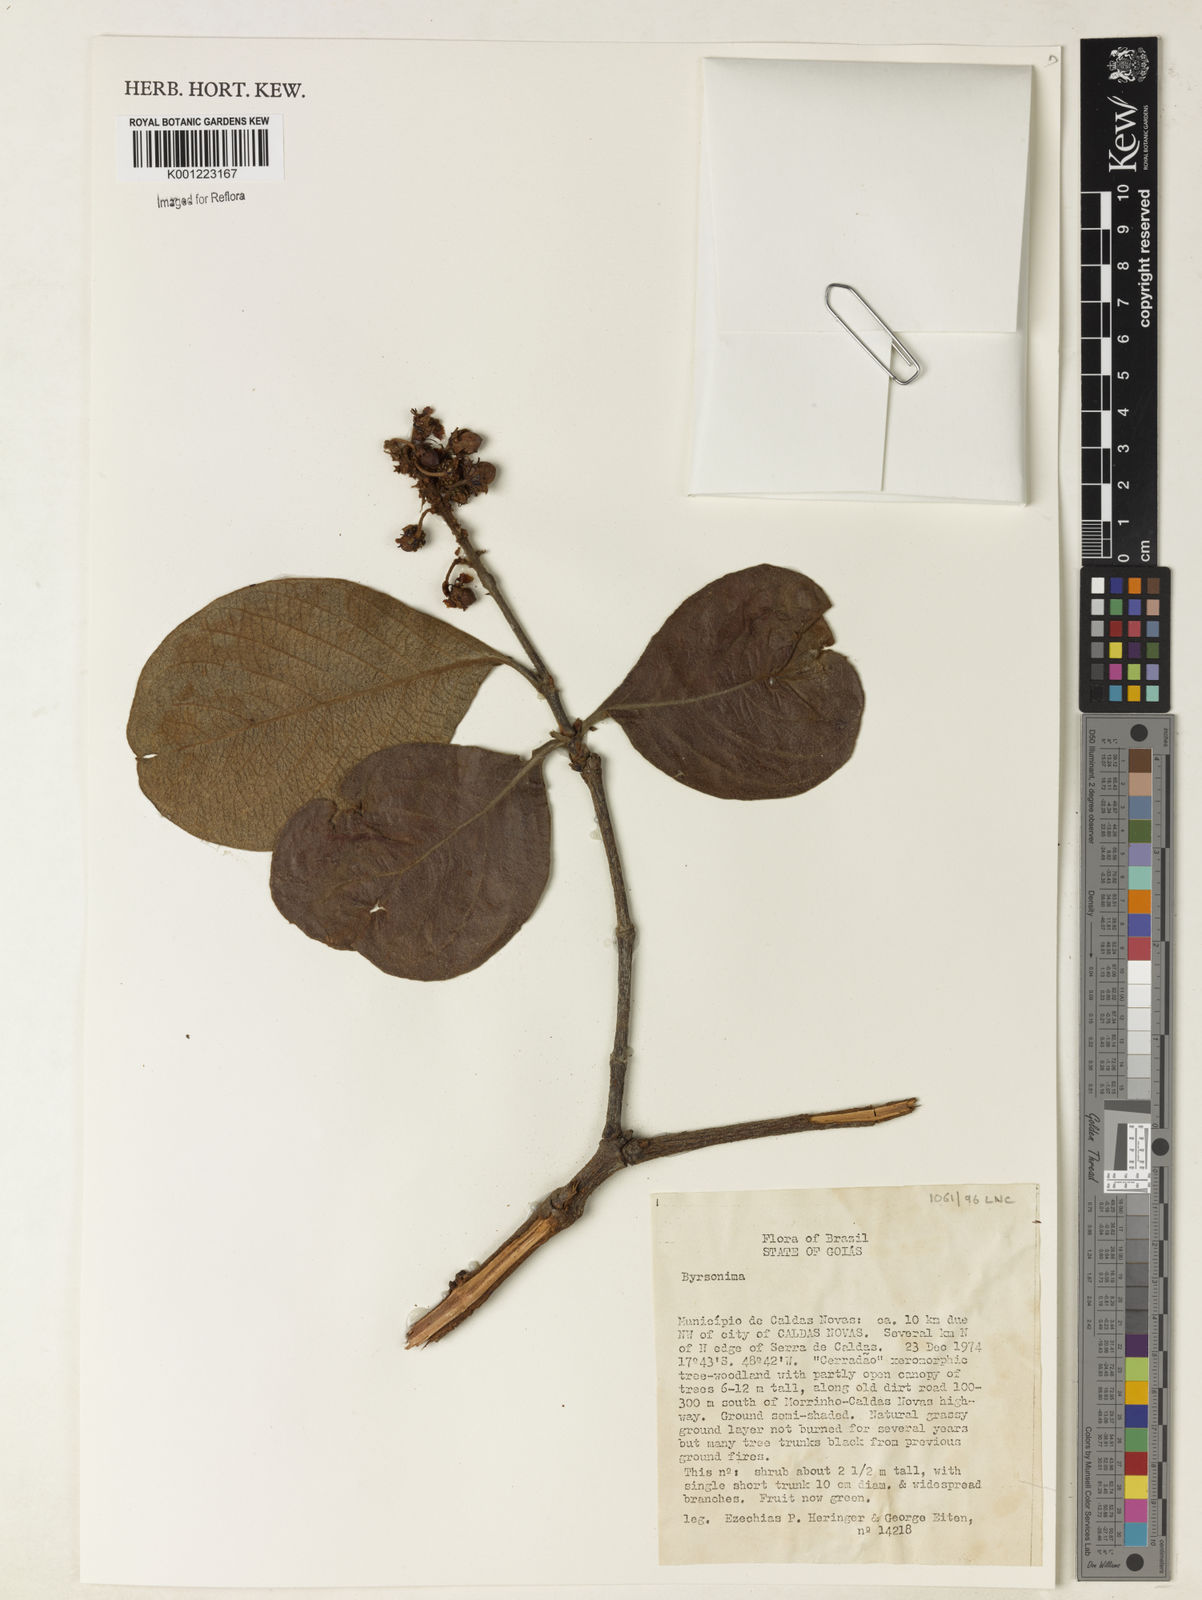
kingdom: Plantae
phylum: Tracheophyta
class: Magnoliopsida
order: Malpighiales
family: Malpighiaceae
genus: Byrsonima
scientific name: Byrsonima
